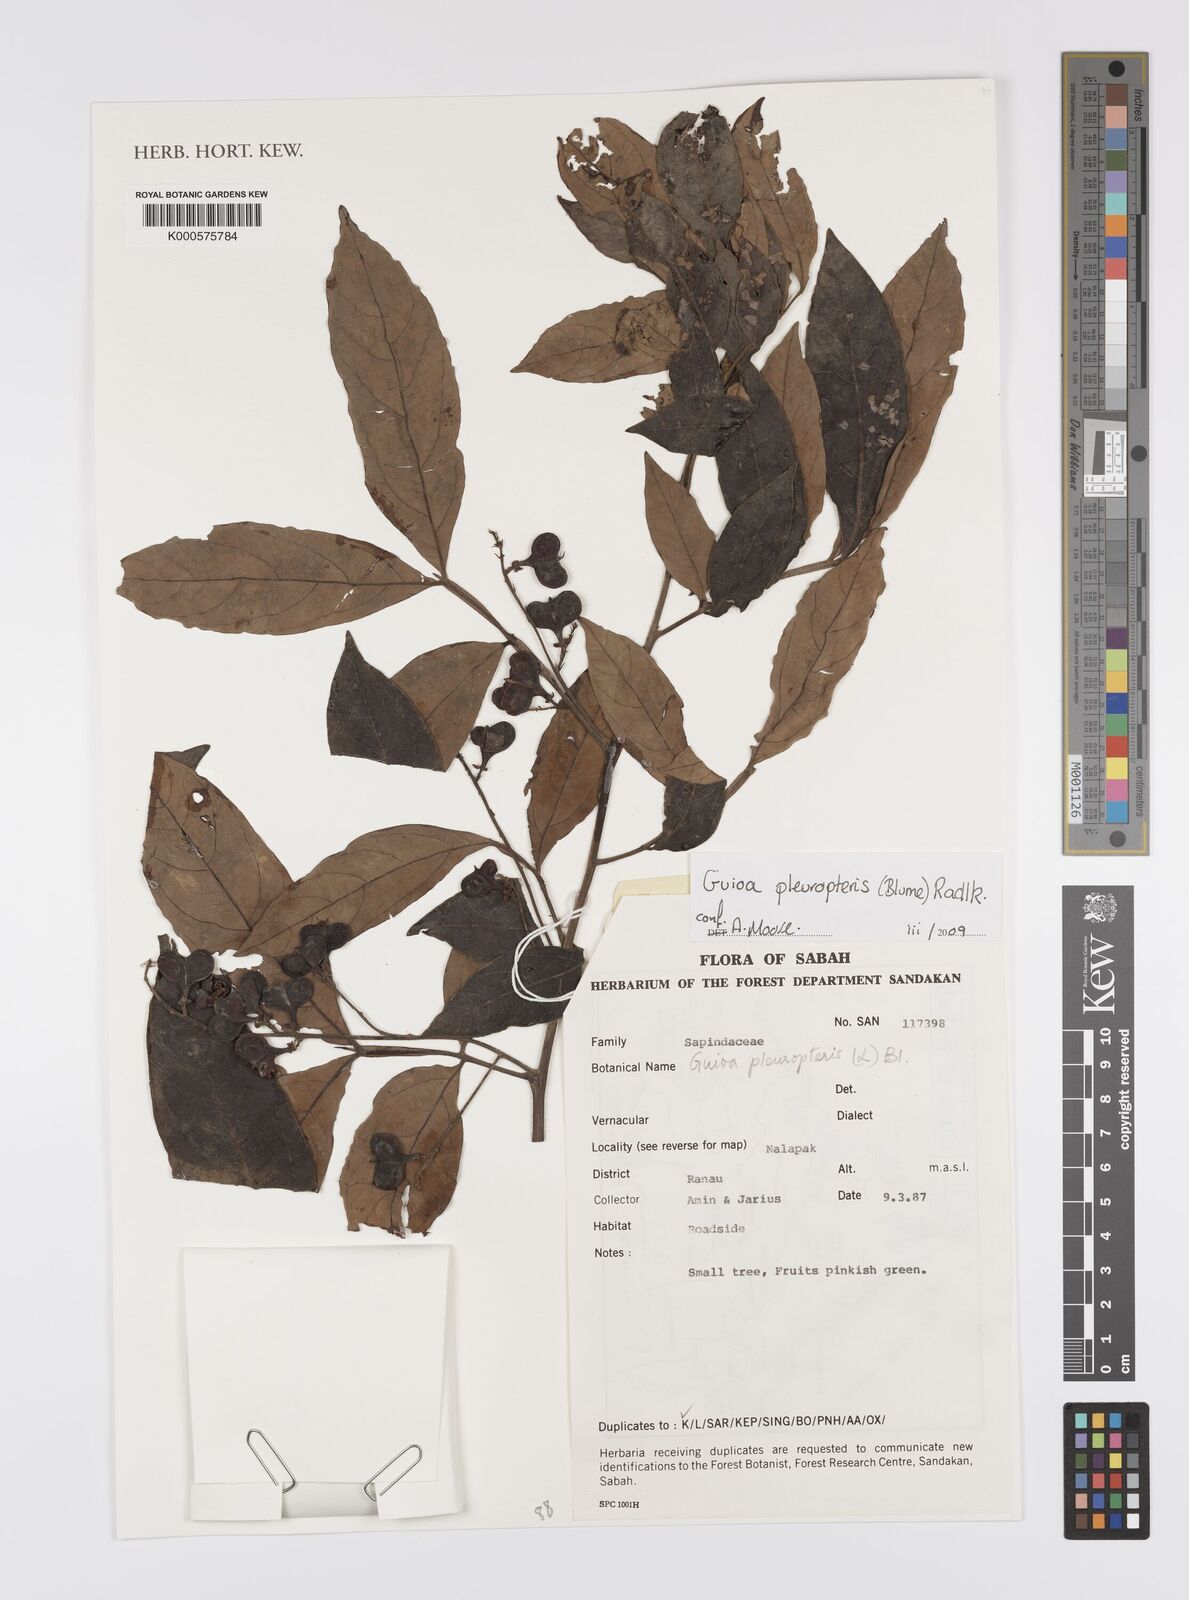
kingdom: Plantae
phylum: Tracheophyta
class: Magnoliopsida
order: Sapindales
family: Sapindaceae
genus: Guioa
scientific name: Guioa pleuropteris
